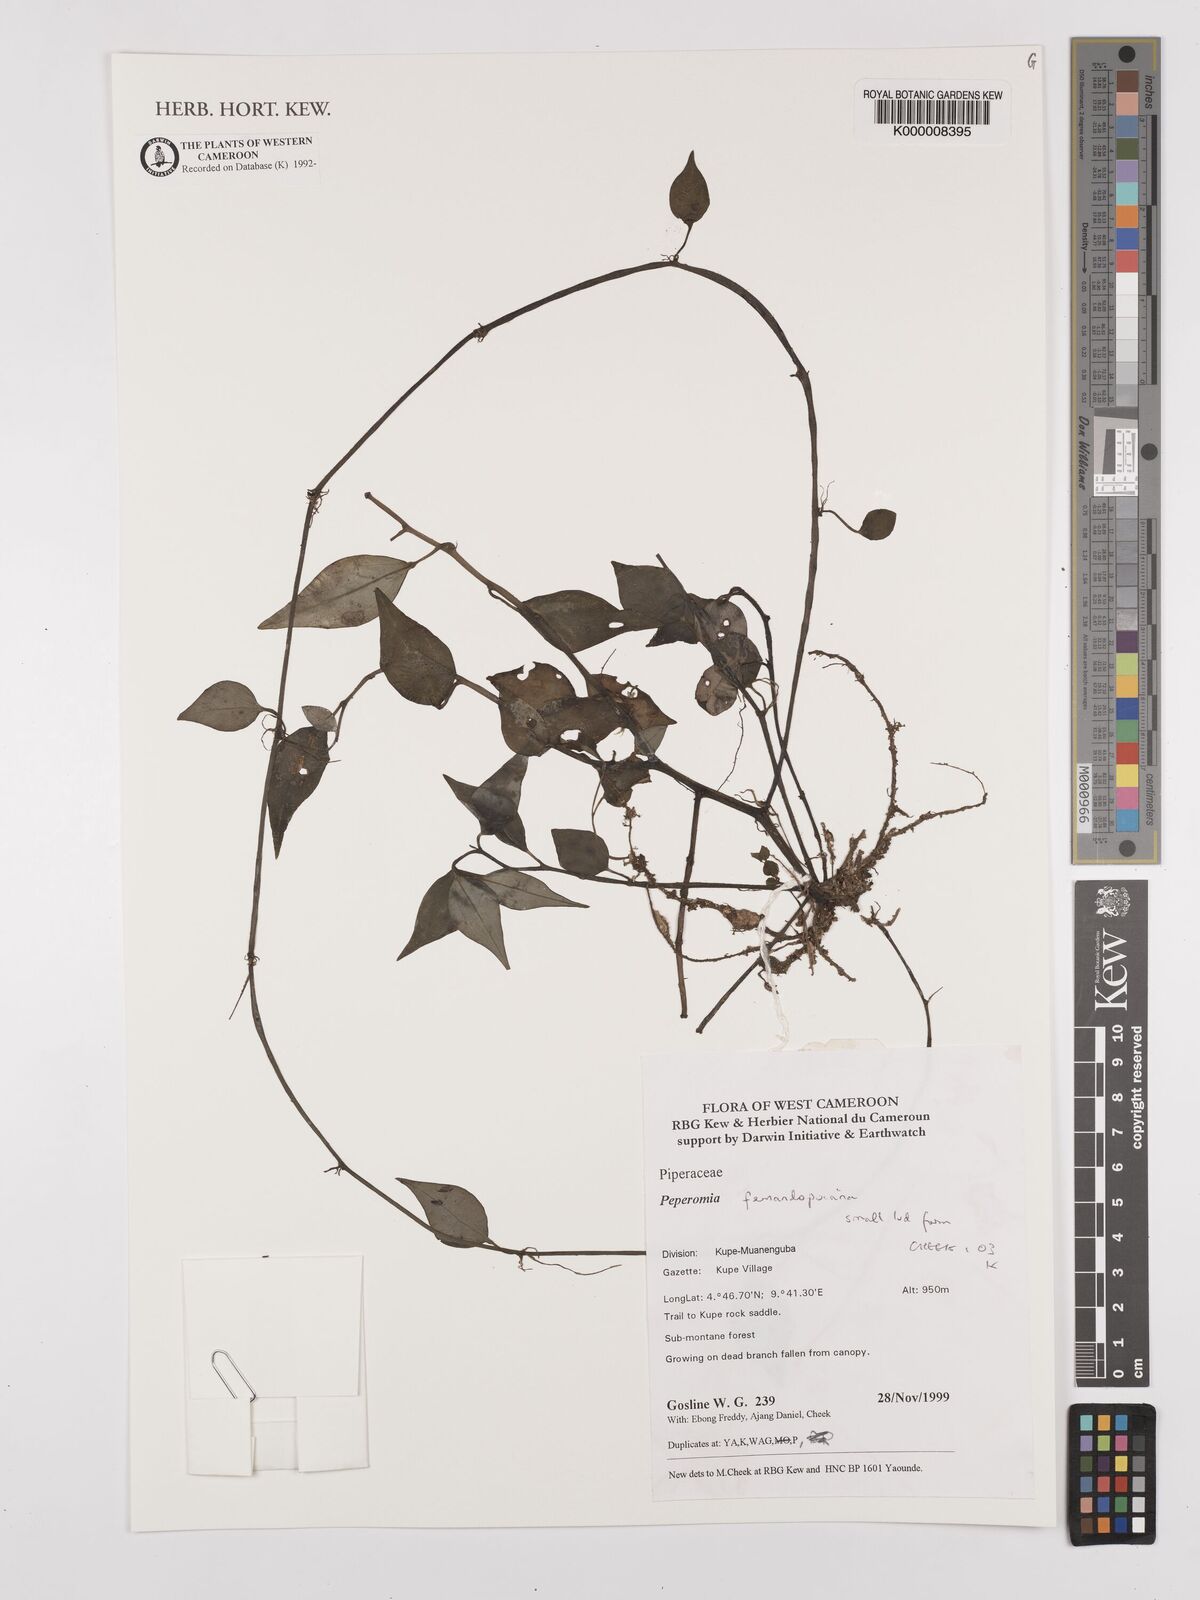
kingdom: Plantae
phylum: Tracheophyta
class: Magnoliopsida
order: Piperales
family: Piperaceae
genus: Peperomia
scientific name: Peperomia fernandopoiana
